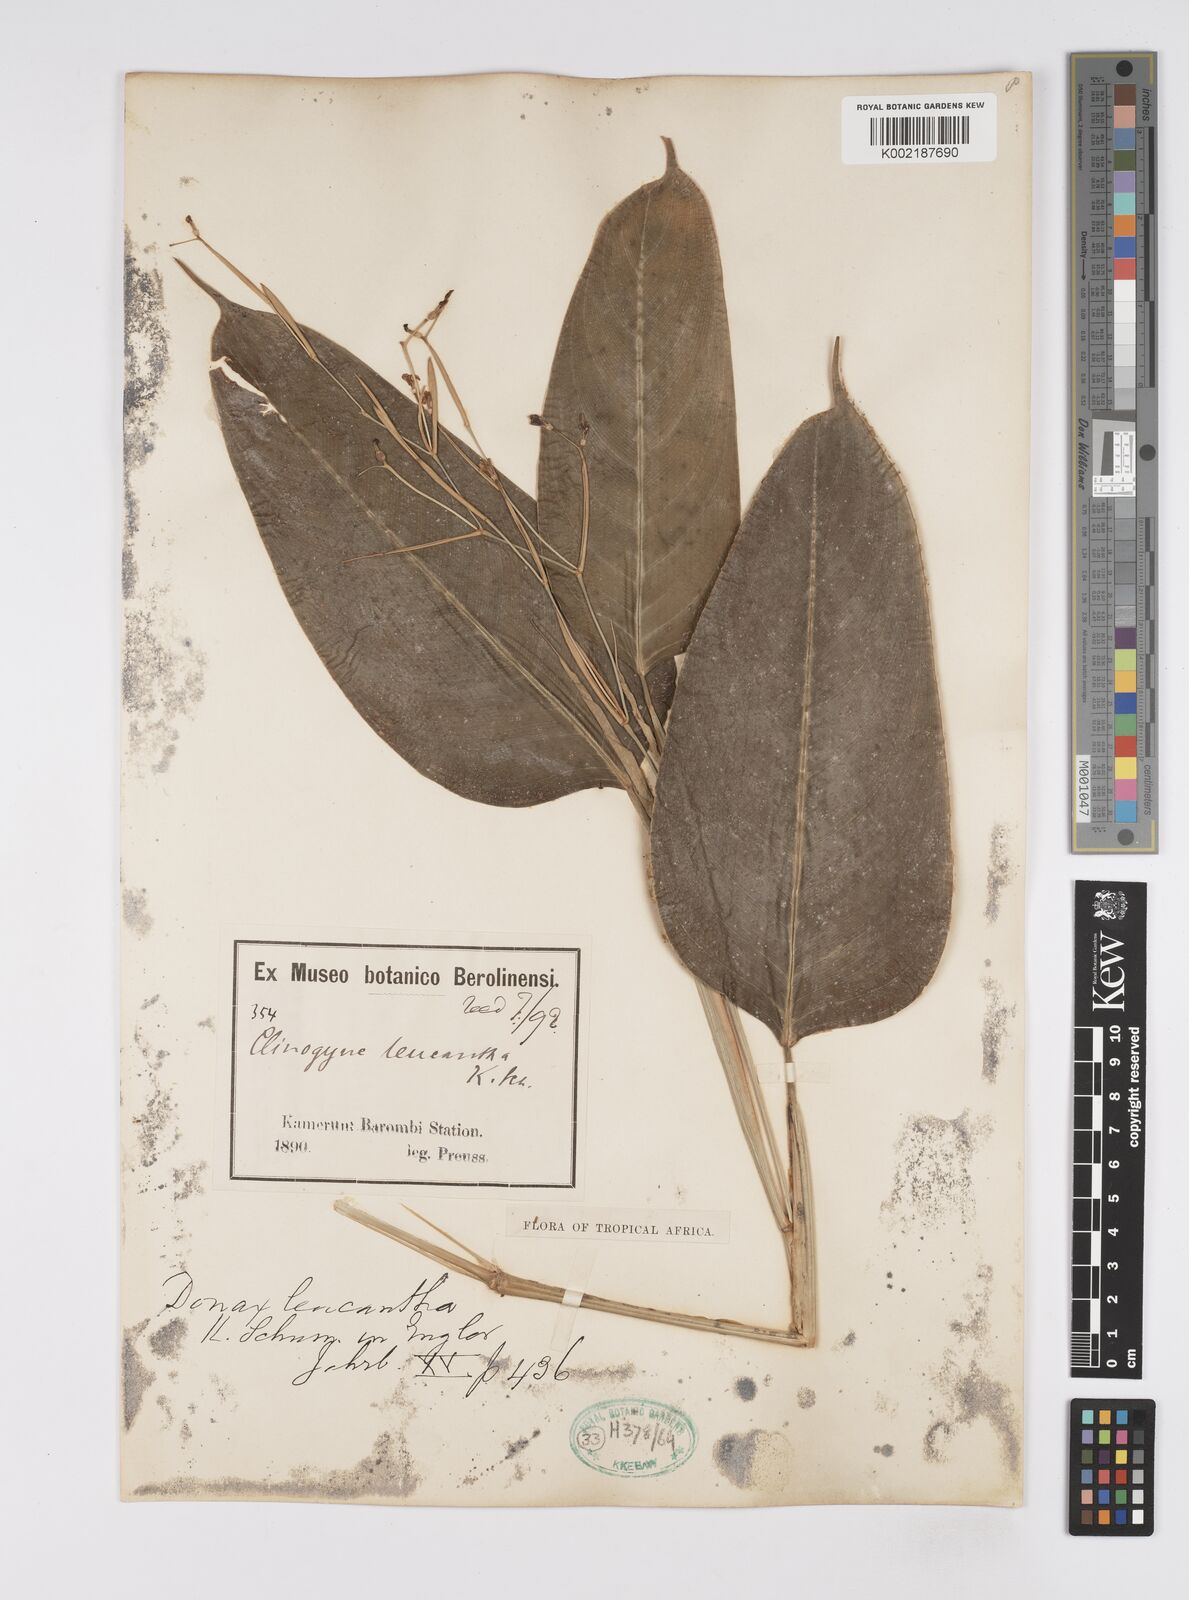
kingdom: Plantae
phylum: Tracheophyta
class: Liliopsida
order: Zingiberales
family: Marantaceae
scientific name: Marantaceae
